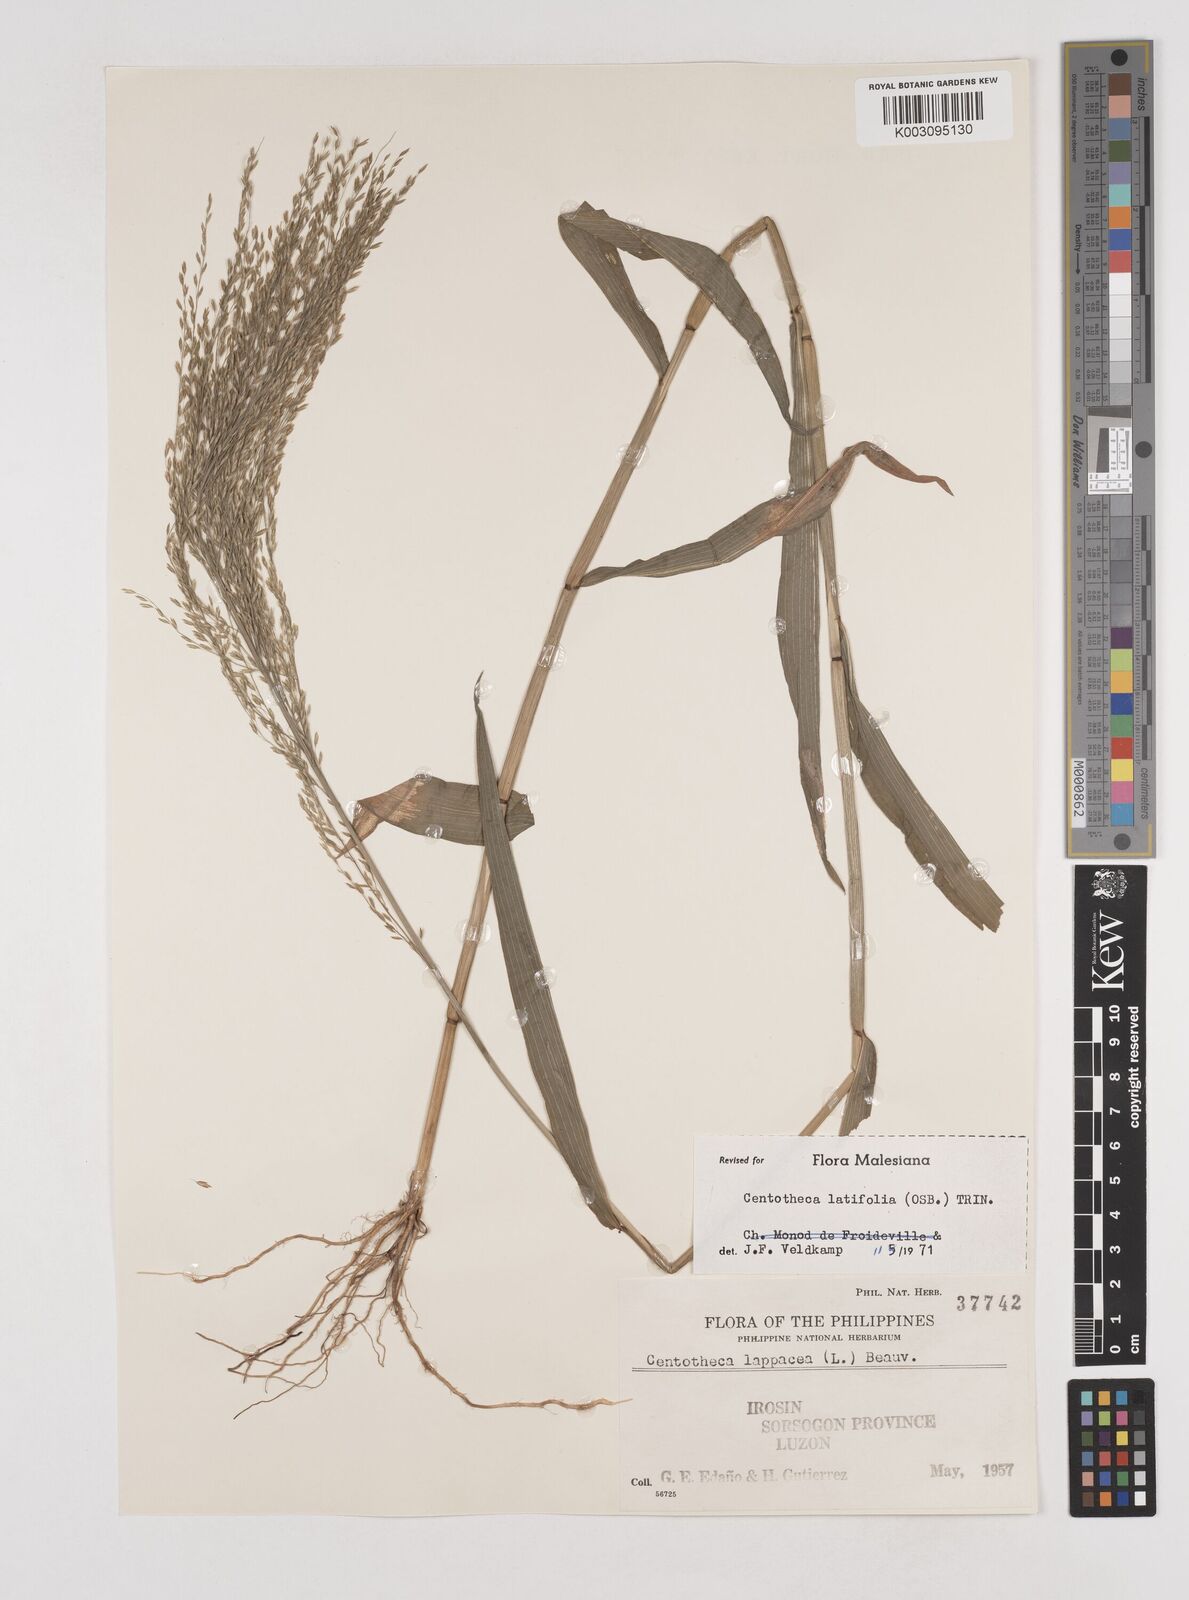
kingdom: Plantae
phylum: Tracheophyta
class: Liliopsida
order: Poales
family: Poaceae
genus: Centotheca
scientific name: Centotheca lappacea
